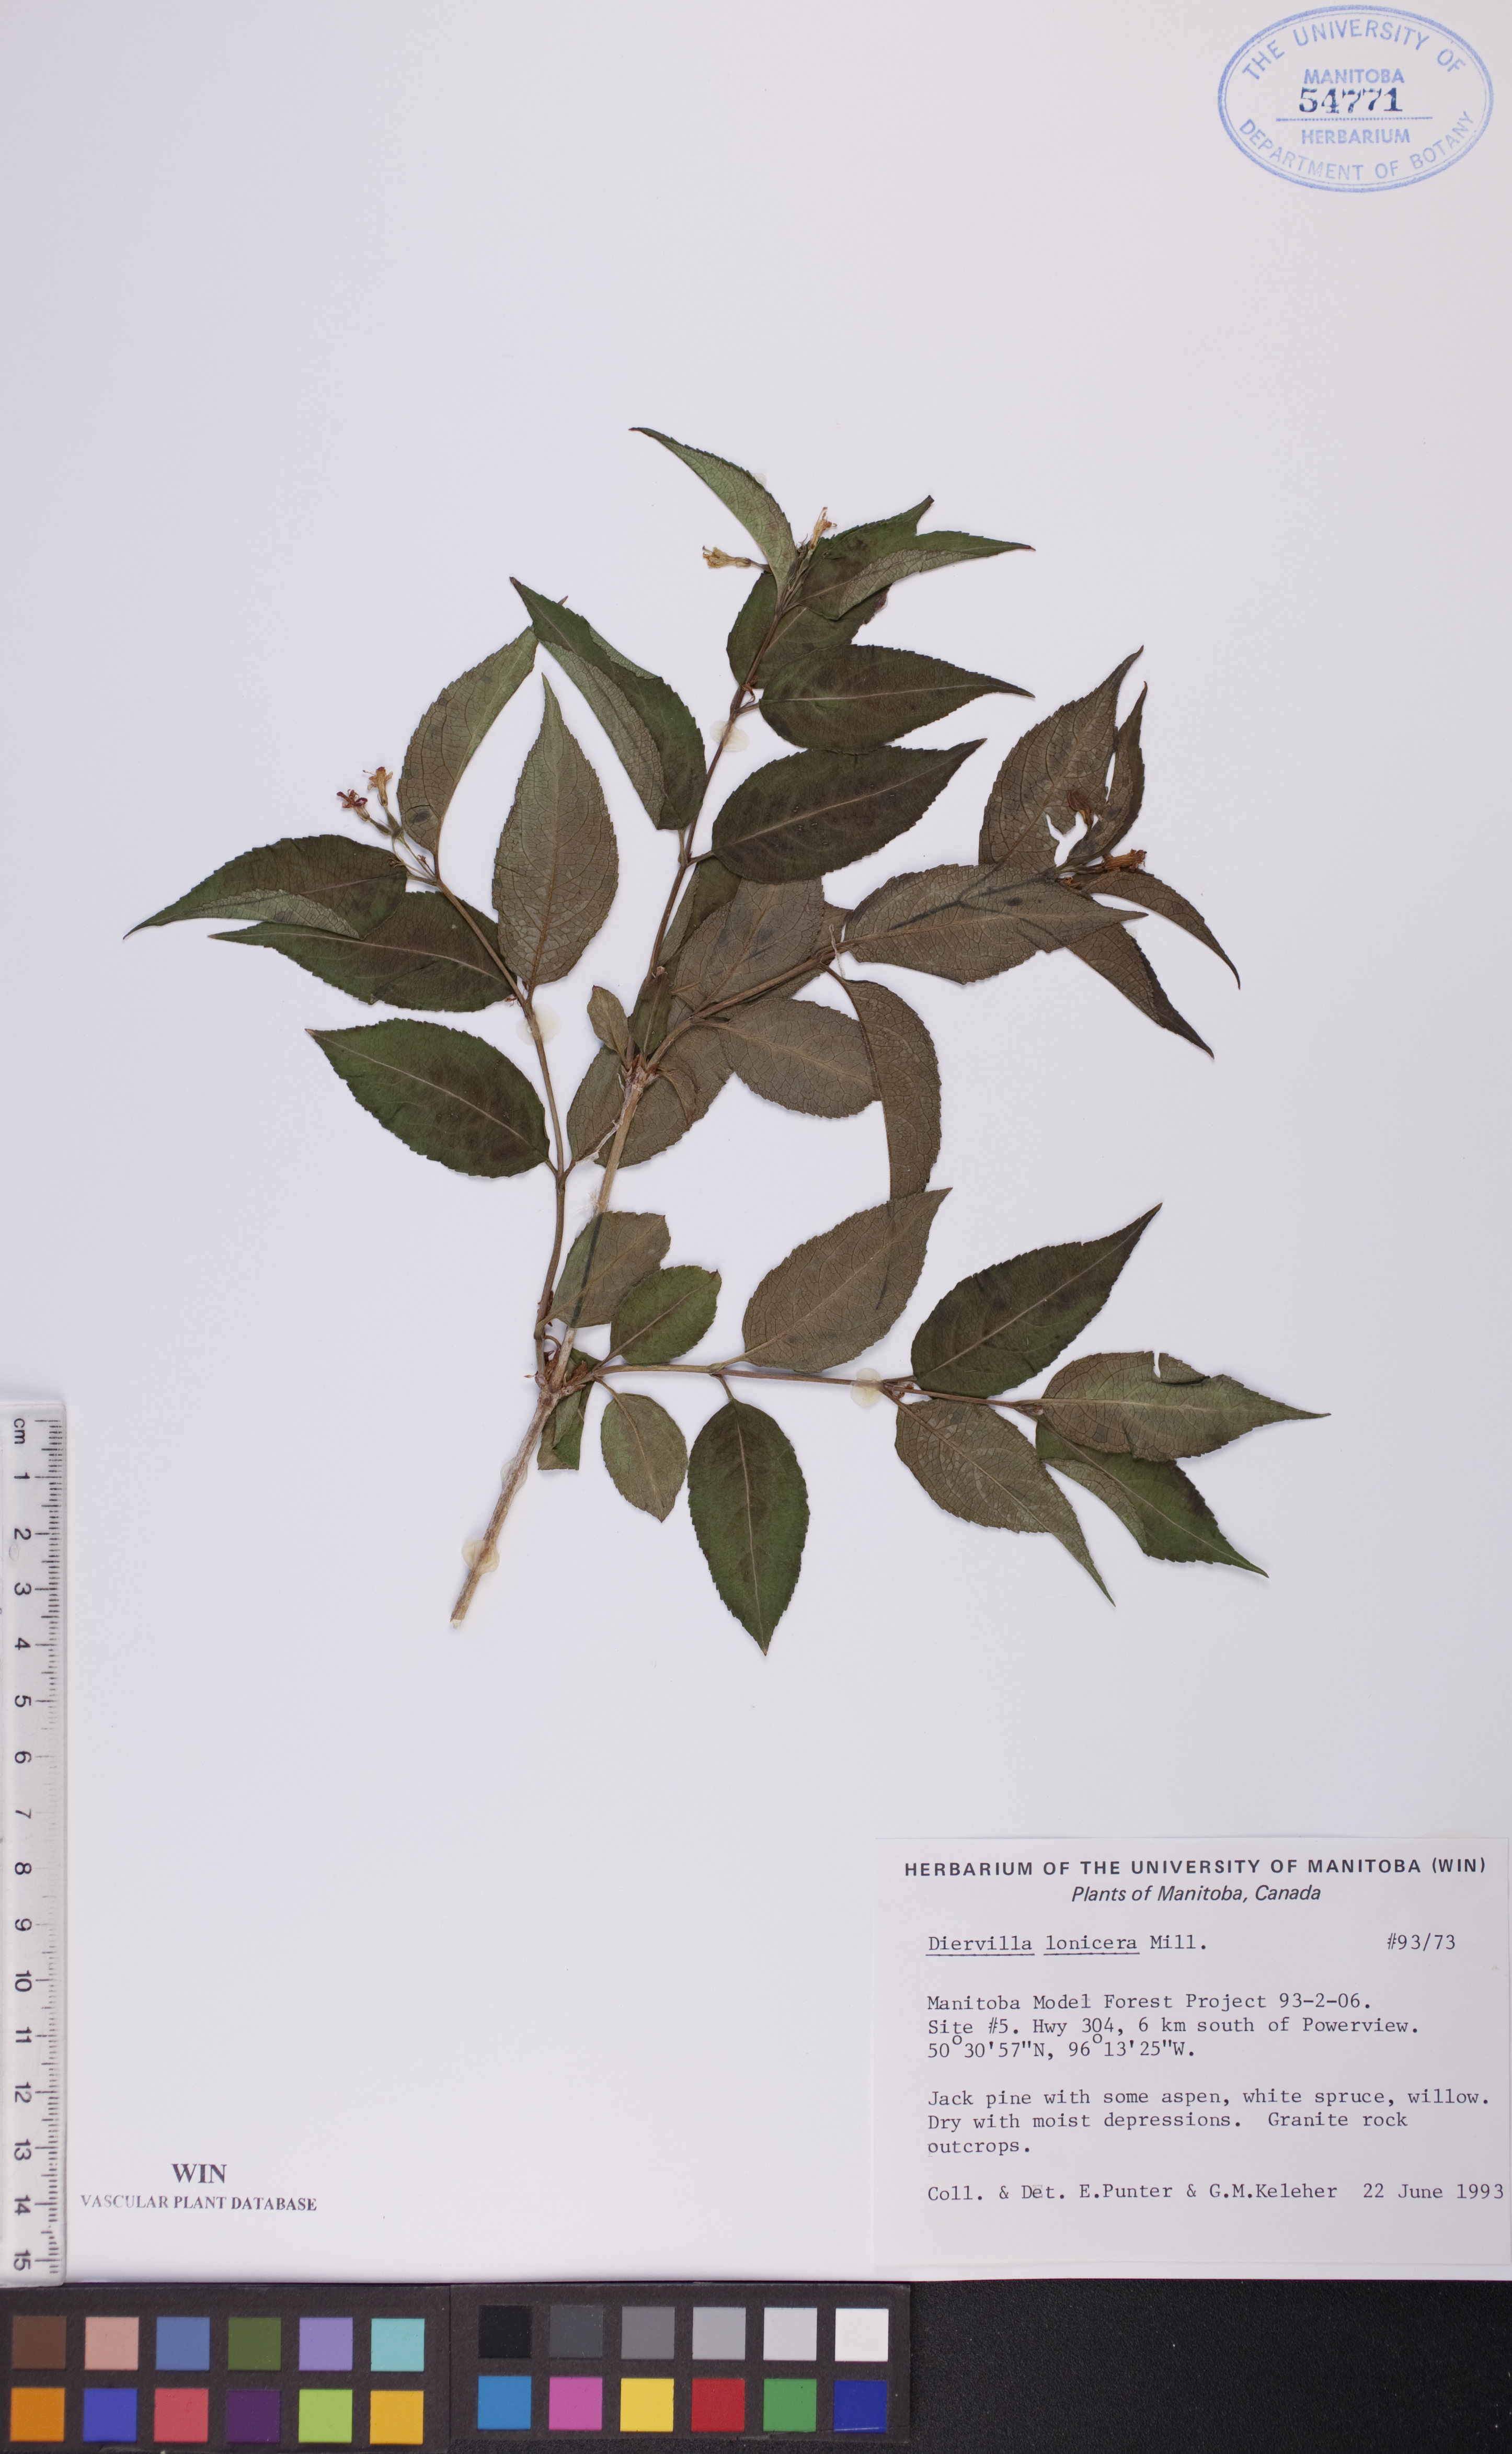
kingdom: Plantae
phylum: Tracheophyta
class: Magnoliopsida
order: Dipsacales
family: Caprifoliaceae
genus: Diervilla
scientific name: Diervilla lonicera
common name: Bush-honeysuckle
